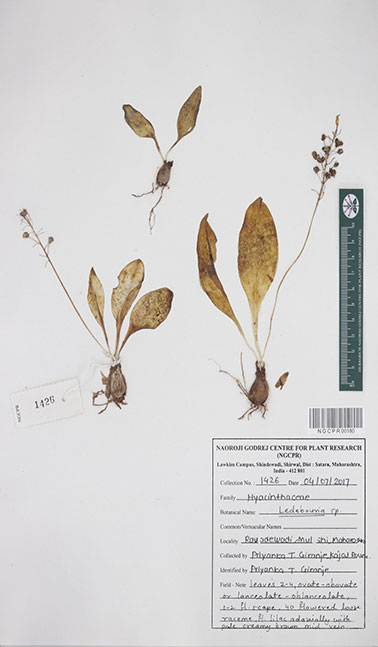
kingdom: Plantae
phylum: Tracheophyta
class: Liliopsida
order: Asparagales
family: Asparagaceae
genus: Ledebouria
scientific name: Ledebouria
